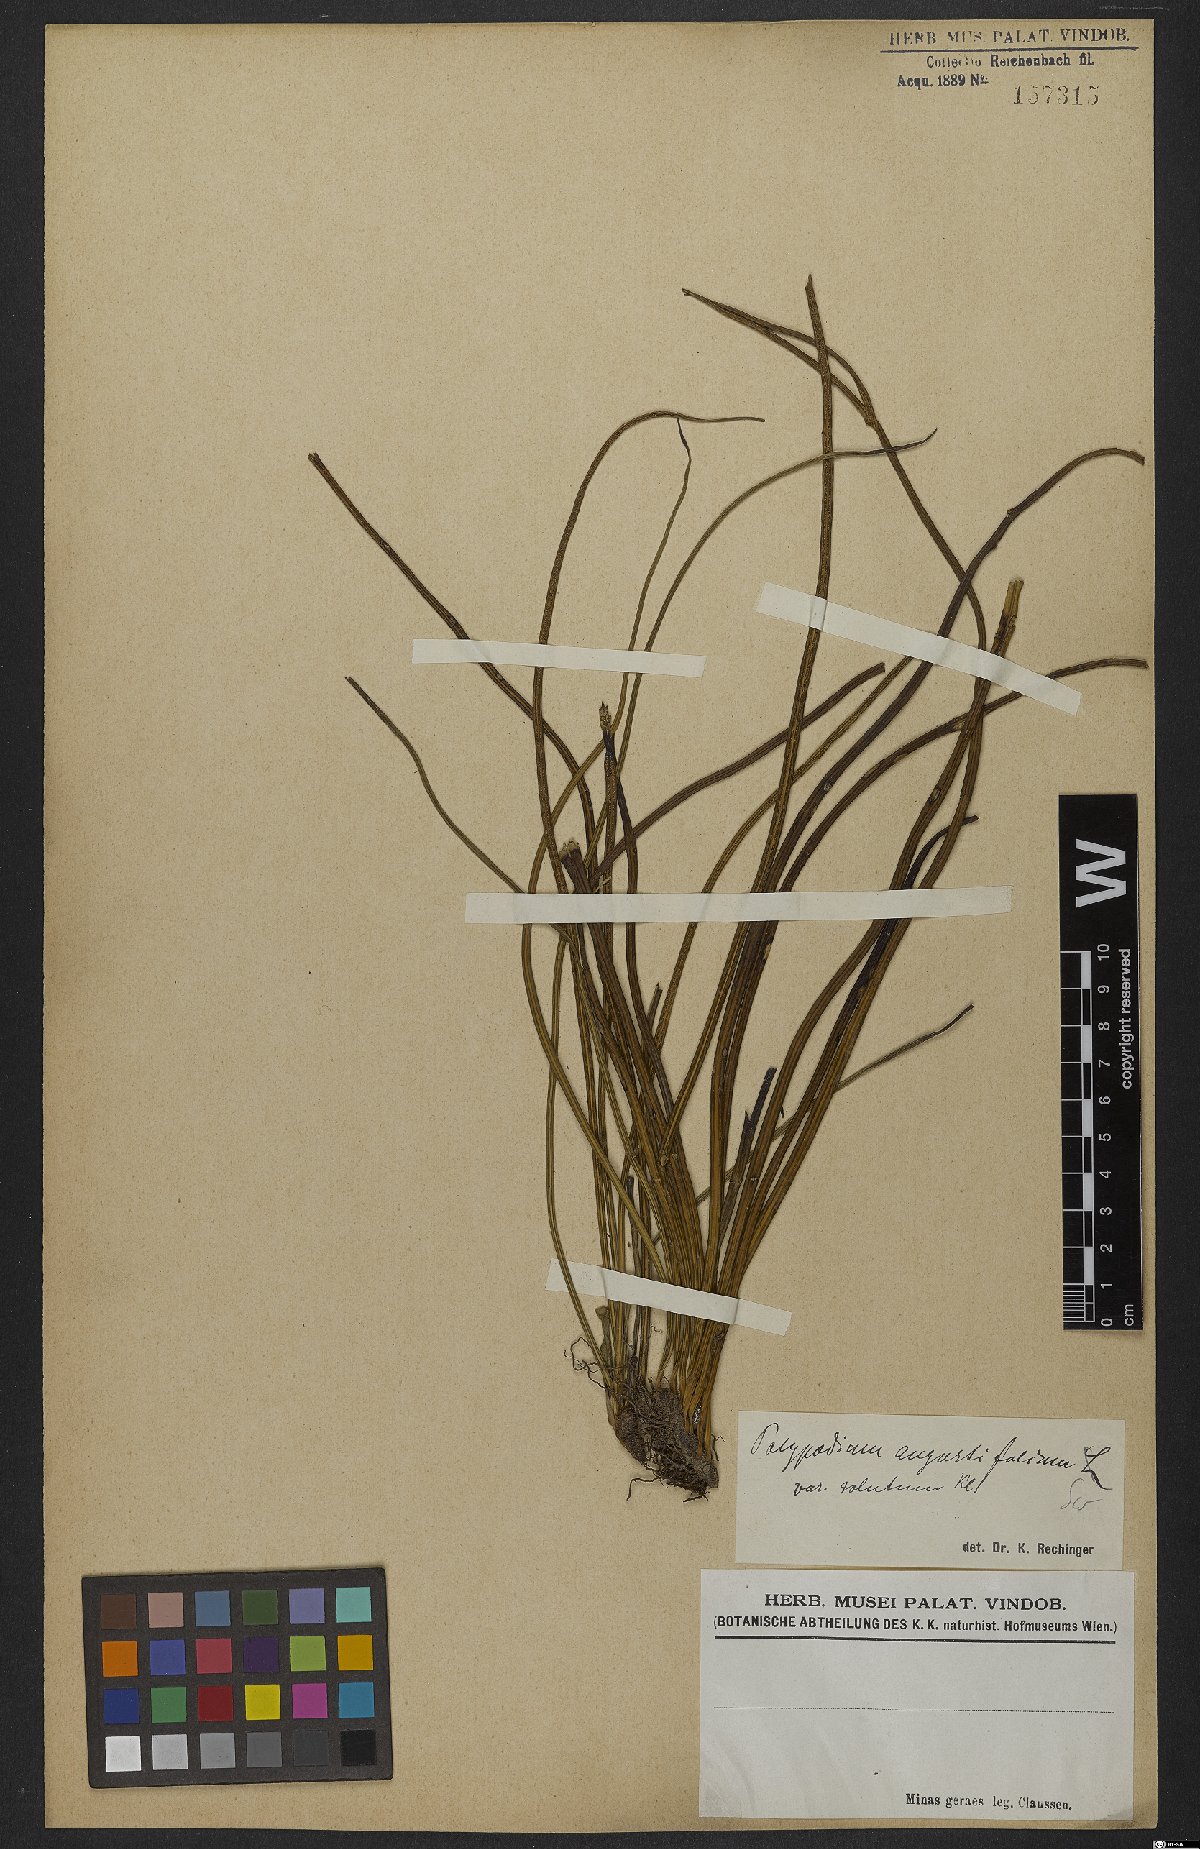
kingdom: Plantae
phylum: Tracheophyta
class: Polypodiopsida
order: Polypodiales
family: Polypodiaceae
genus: Campyloneurum
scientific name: Campyloneurum solutum
